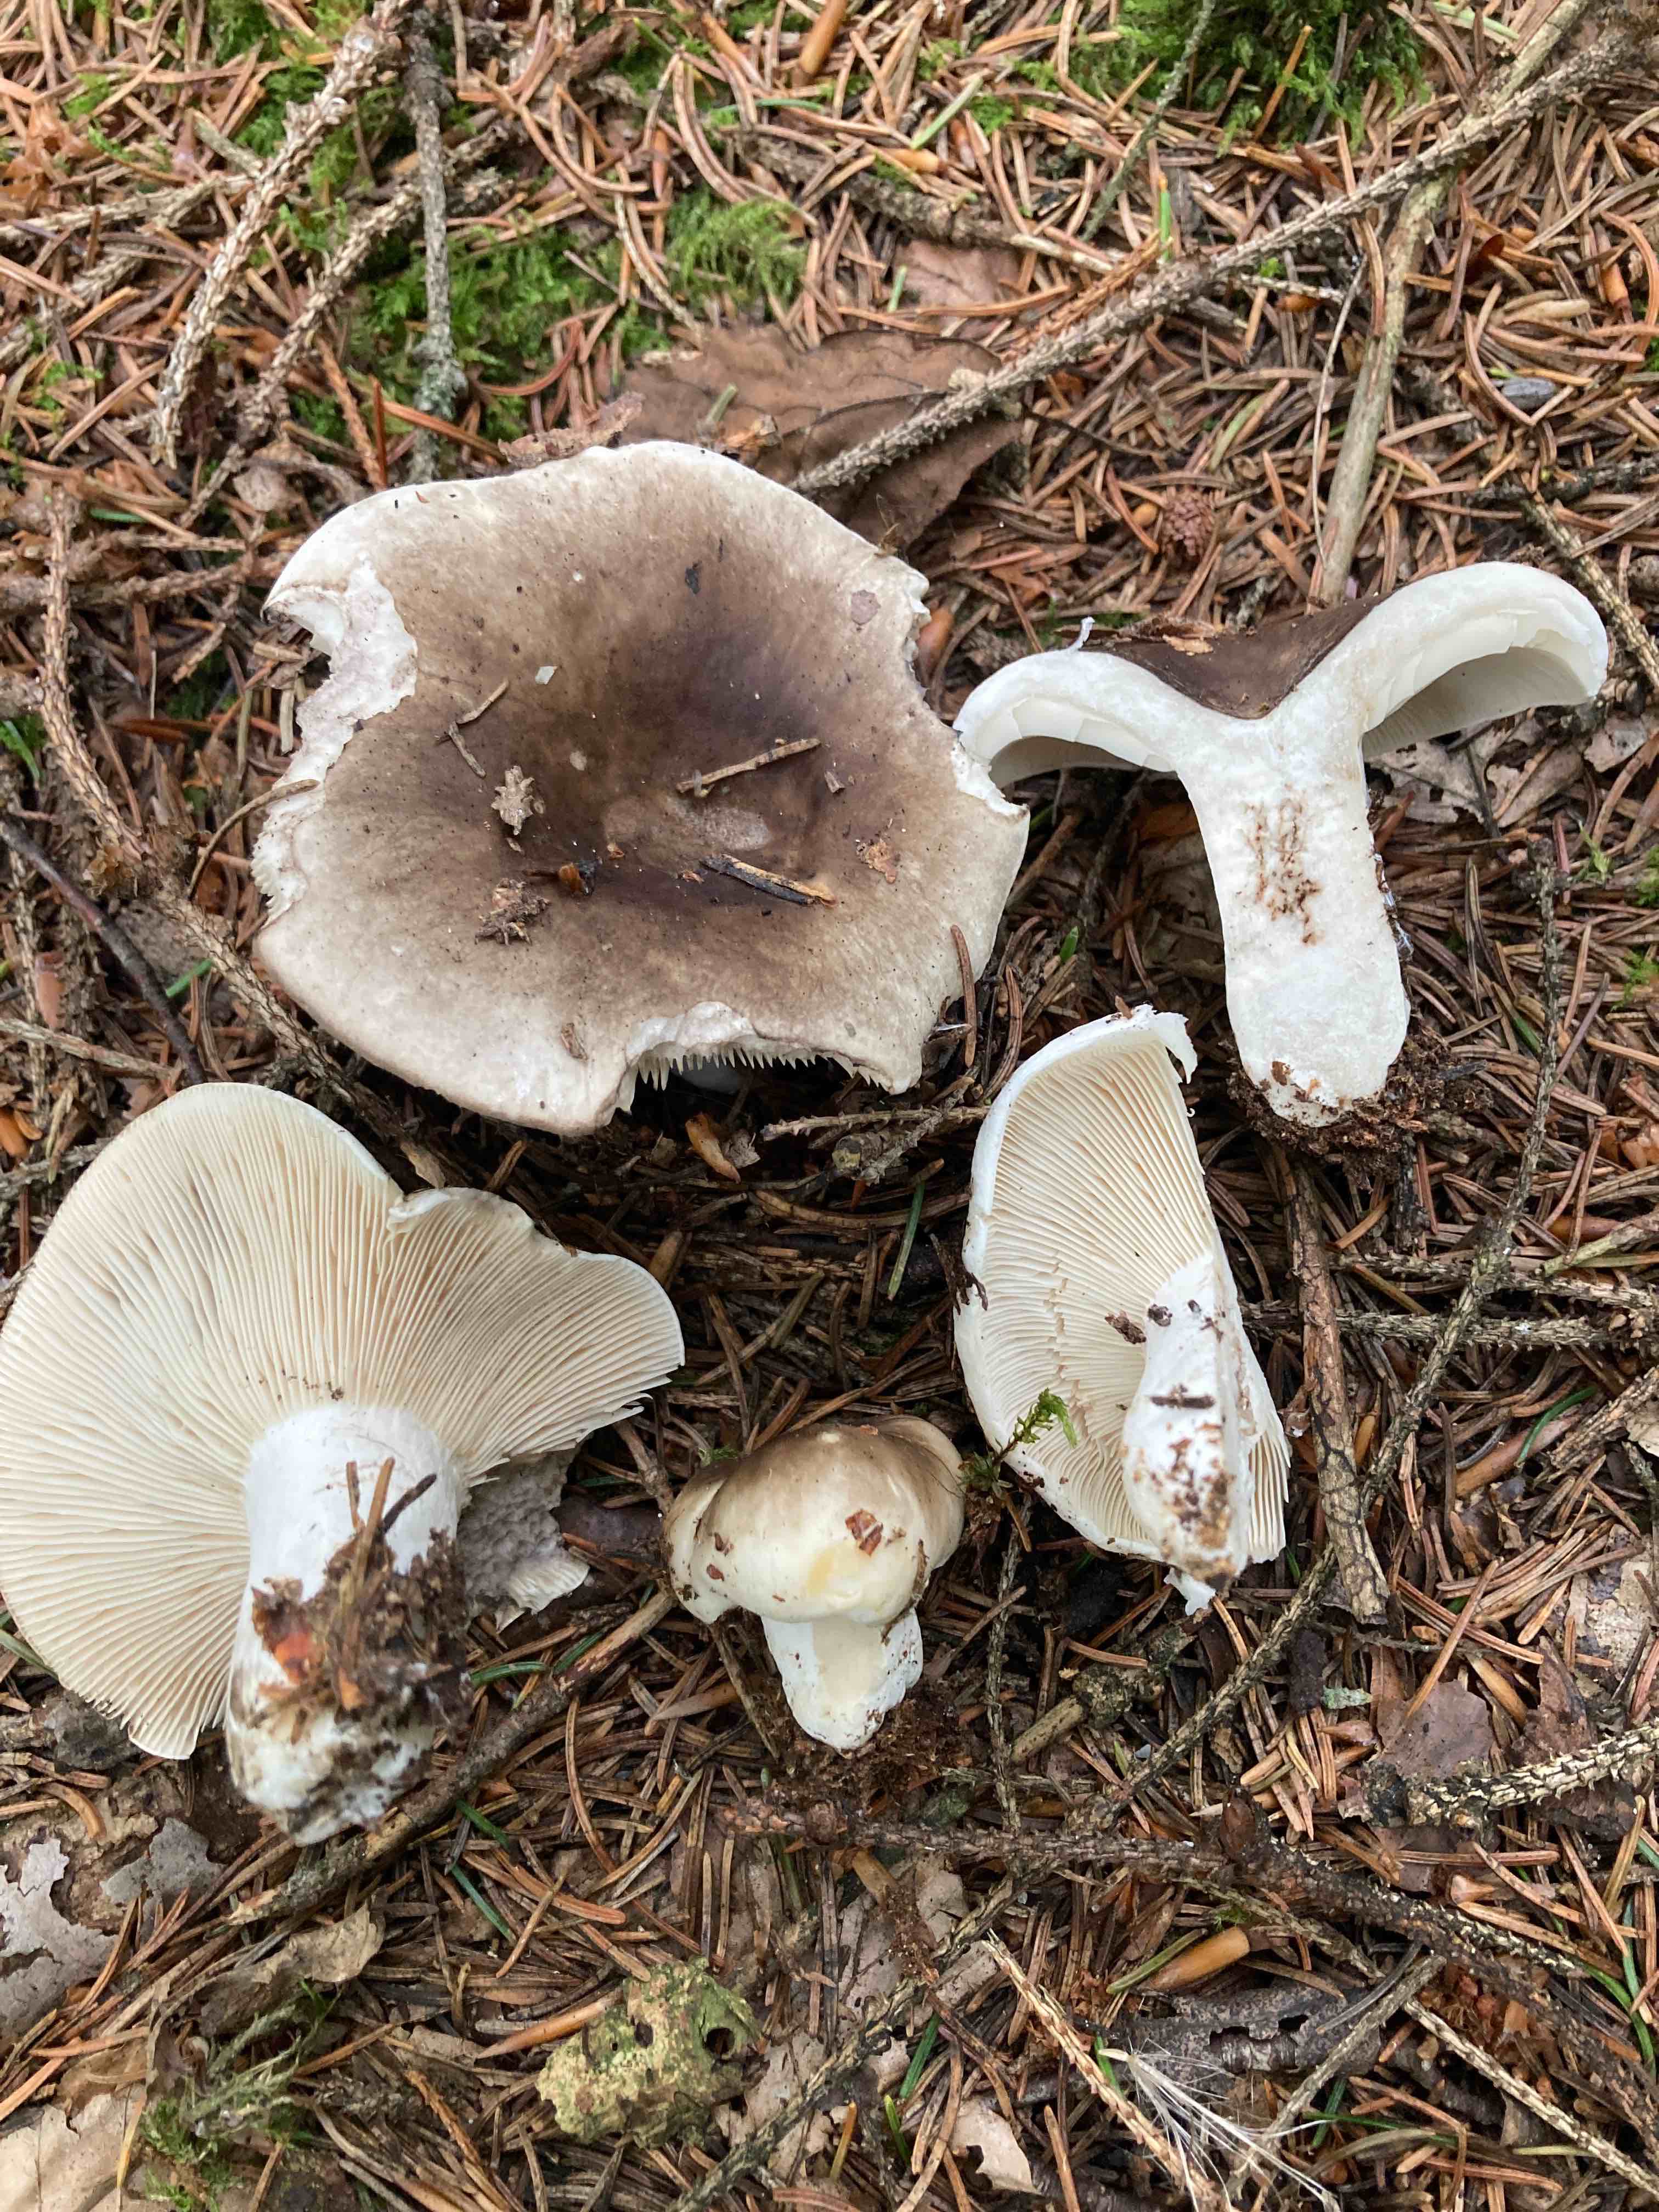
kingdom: Fungi
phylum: Basidiomycota
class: Agaricomycetes
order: Russulales
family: Russulaceae
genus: Russula
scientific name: Russula densifolia
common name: tætbladet skørhat
